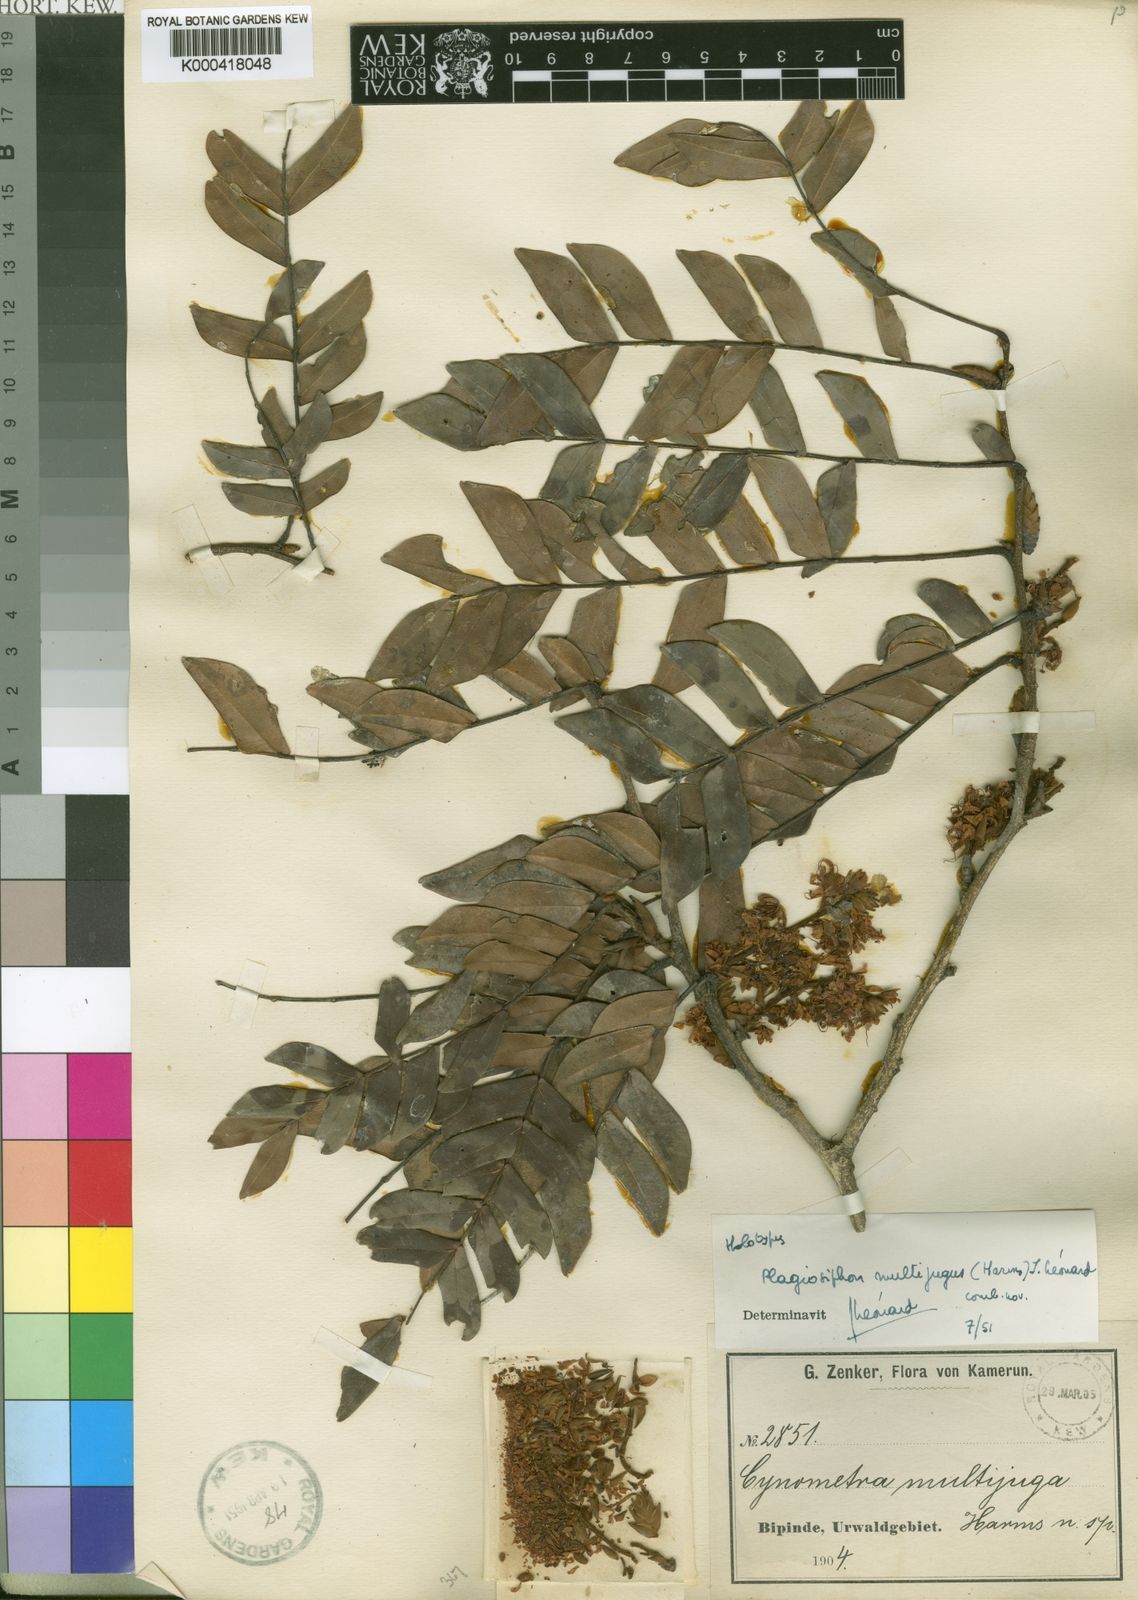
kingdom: Plantae
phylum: Tracheophyta
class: Magnoliopsida
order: Fabales
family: Fabaceae
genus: Plagiosiphon
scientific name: Plagiosiphon
